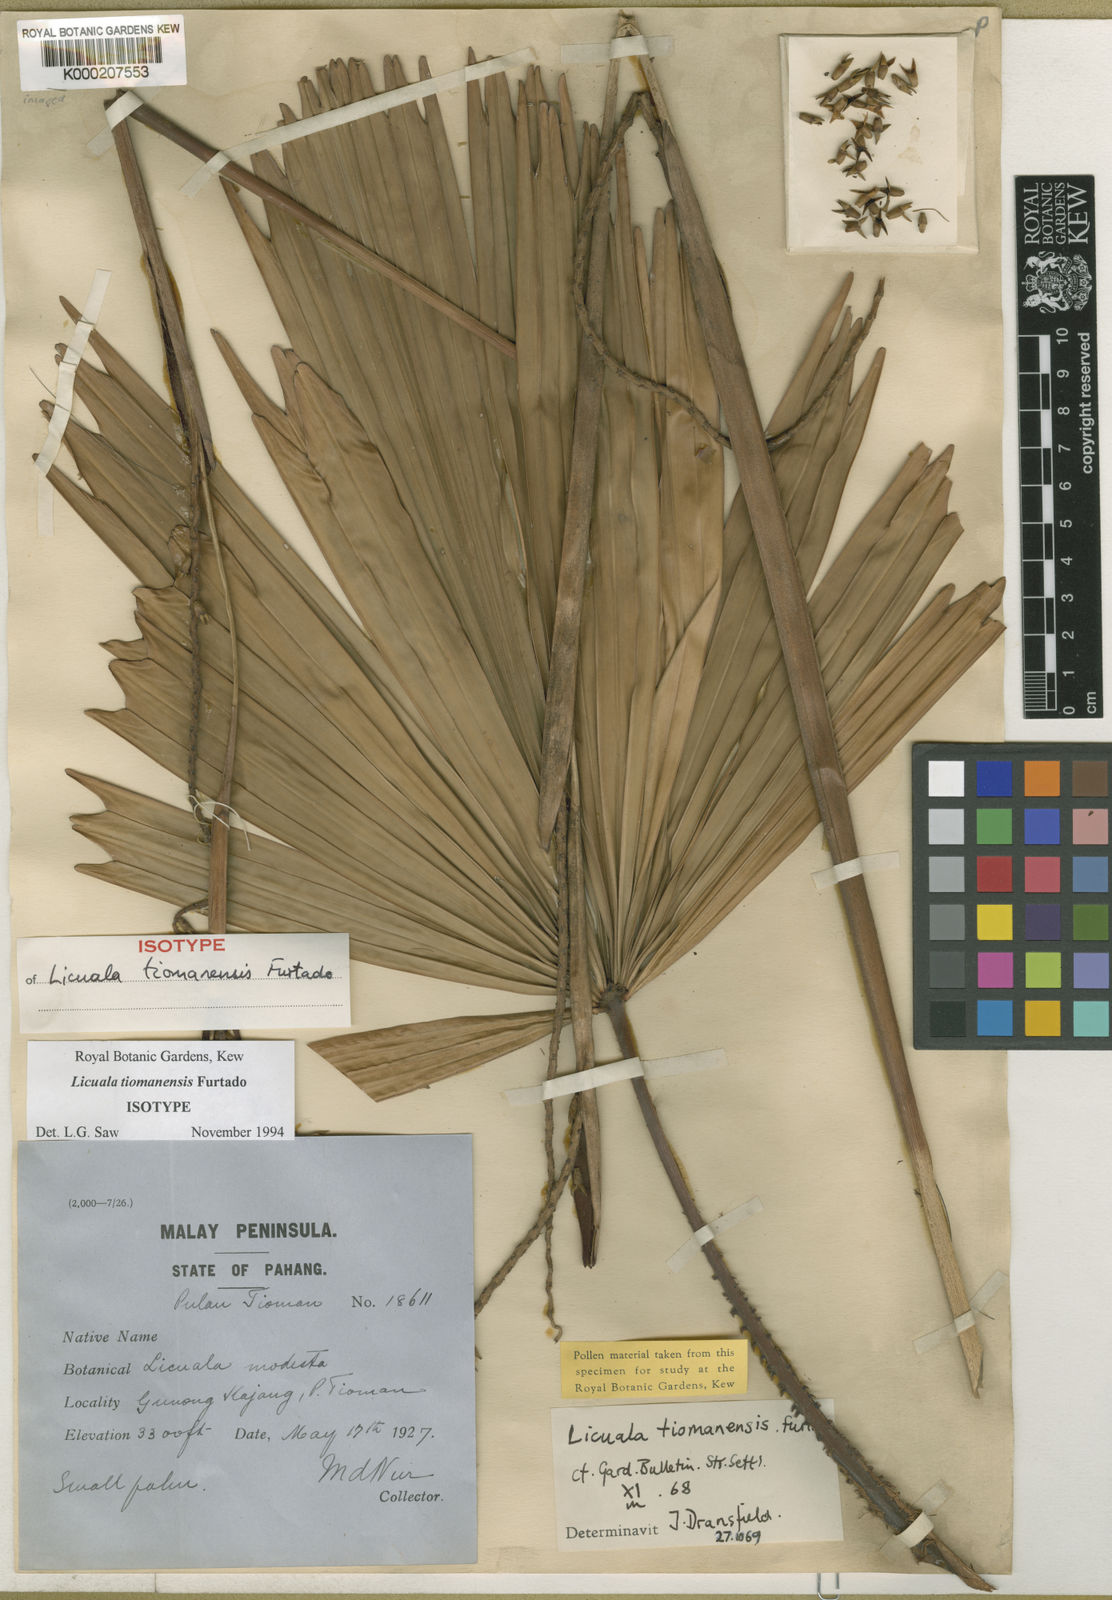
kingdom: Plantae
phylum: Tracheophyta
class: Liliopsida
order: Arecales
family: Arecaceae
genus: Licuala
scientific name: Licuala tiomanensis
